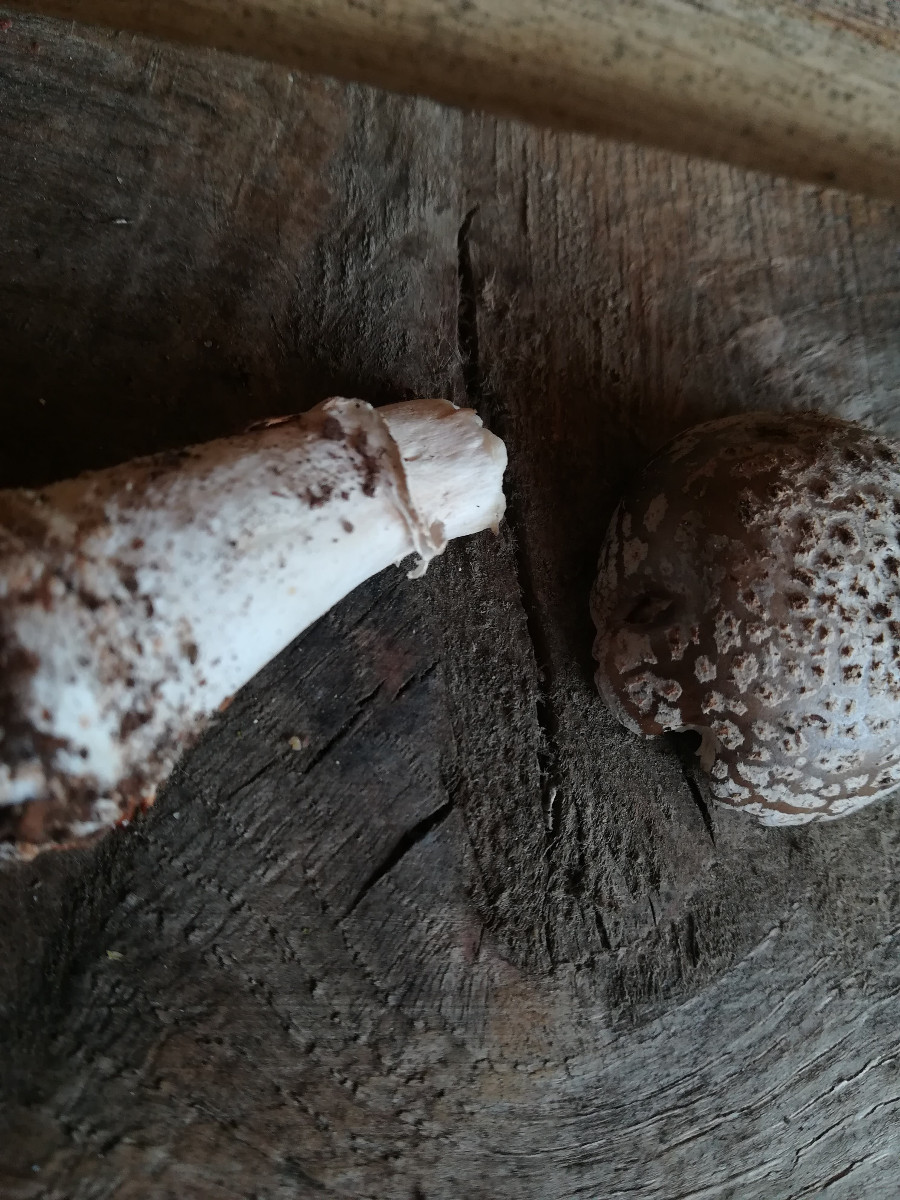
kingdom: Fungi
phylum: Basidiomycota
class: Agaricomycetes
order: Agaricales
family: Amanitaceae
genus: Amanita
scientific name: Amanita
